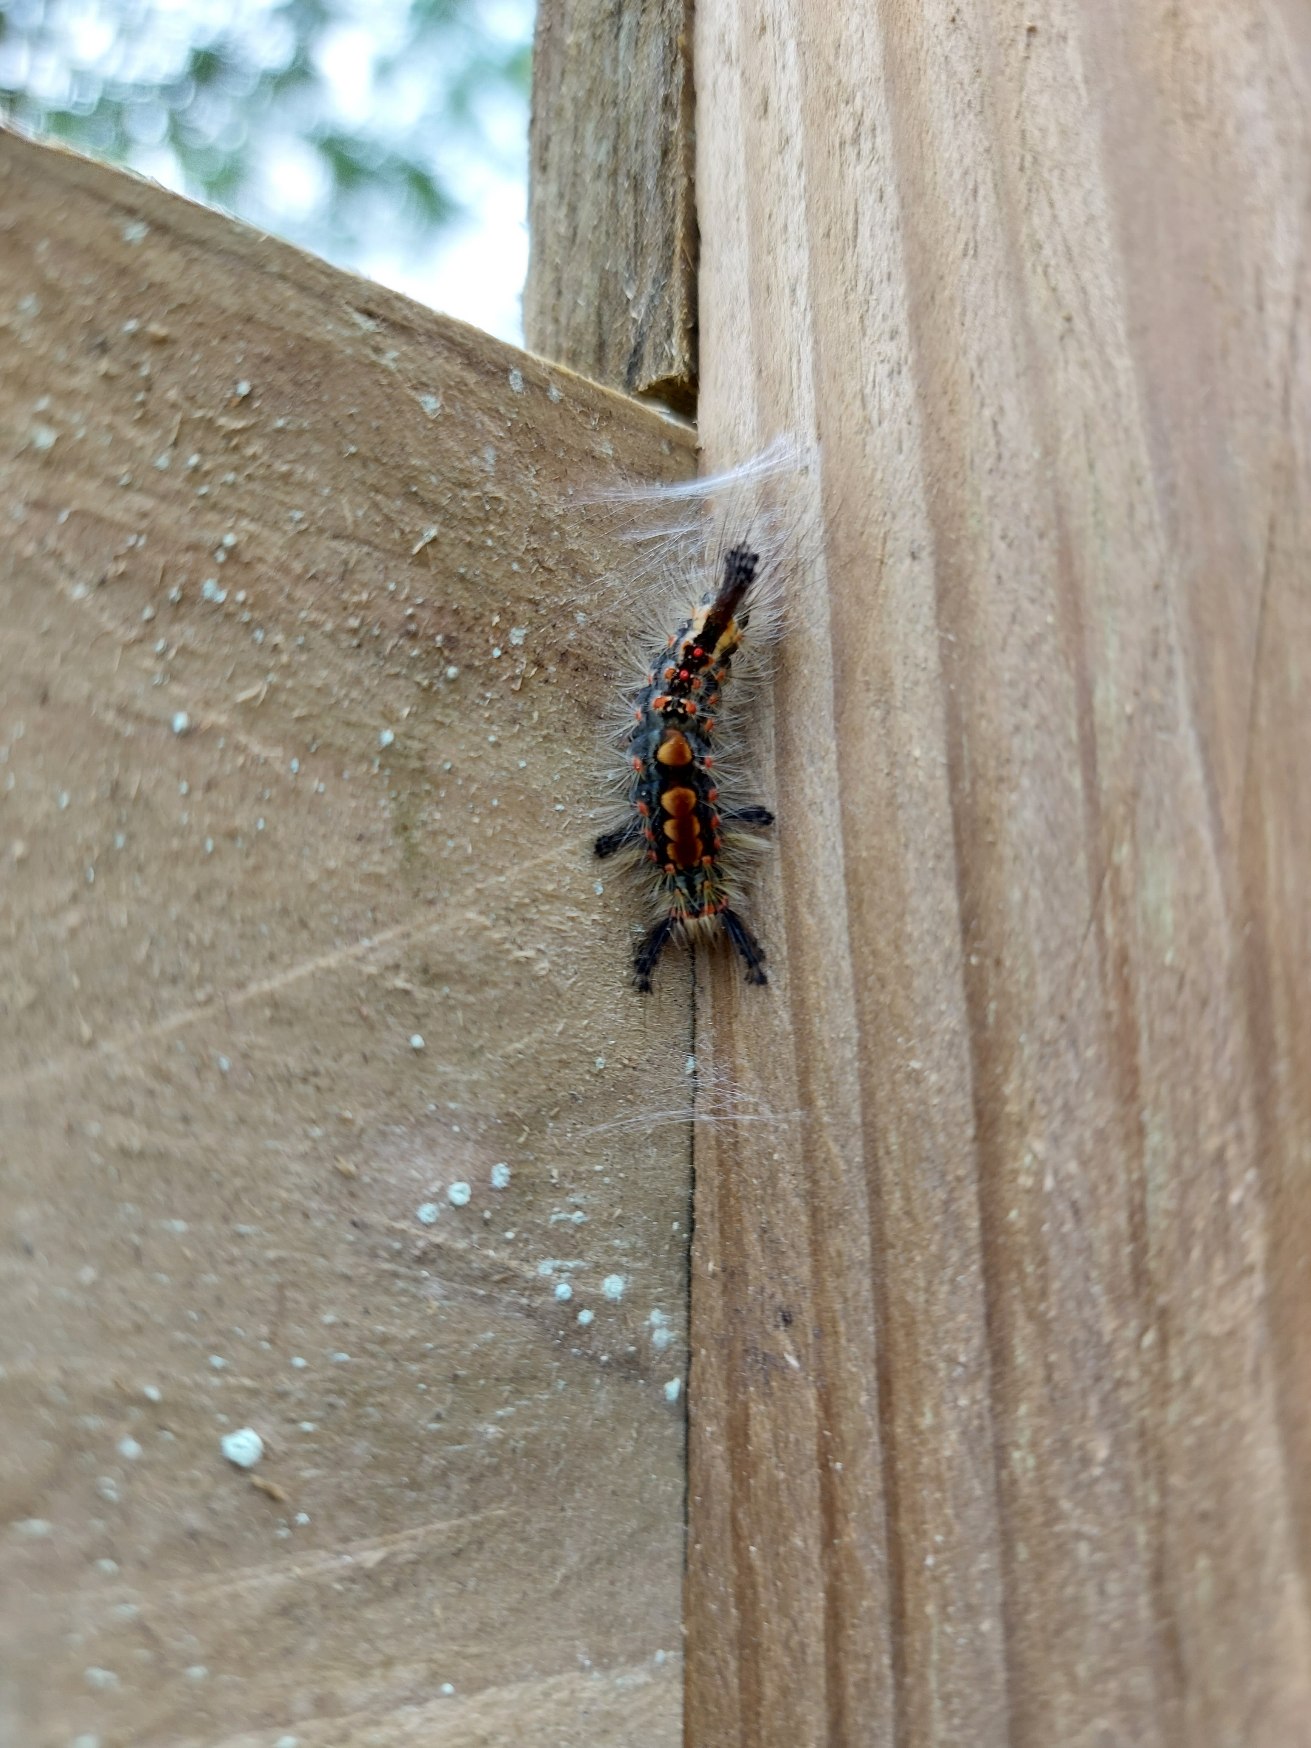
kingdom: Animalia
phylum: Arthropoda
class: Insecta
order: Lepidoptera
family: Erebidae
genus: Orgyia
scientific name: Orgyia antiqua
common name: Lille penselspinder
